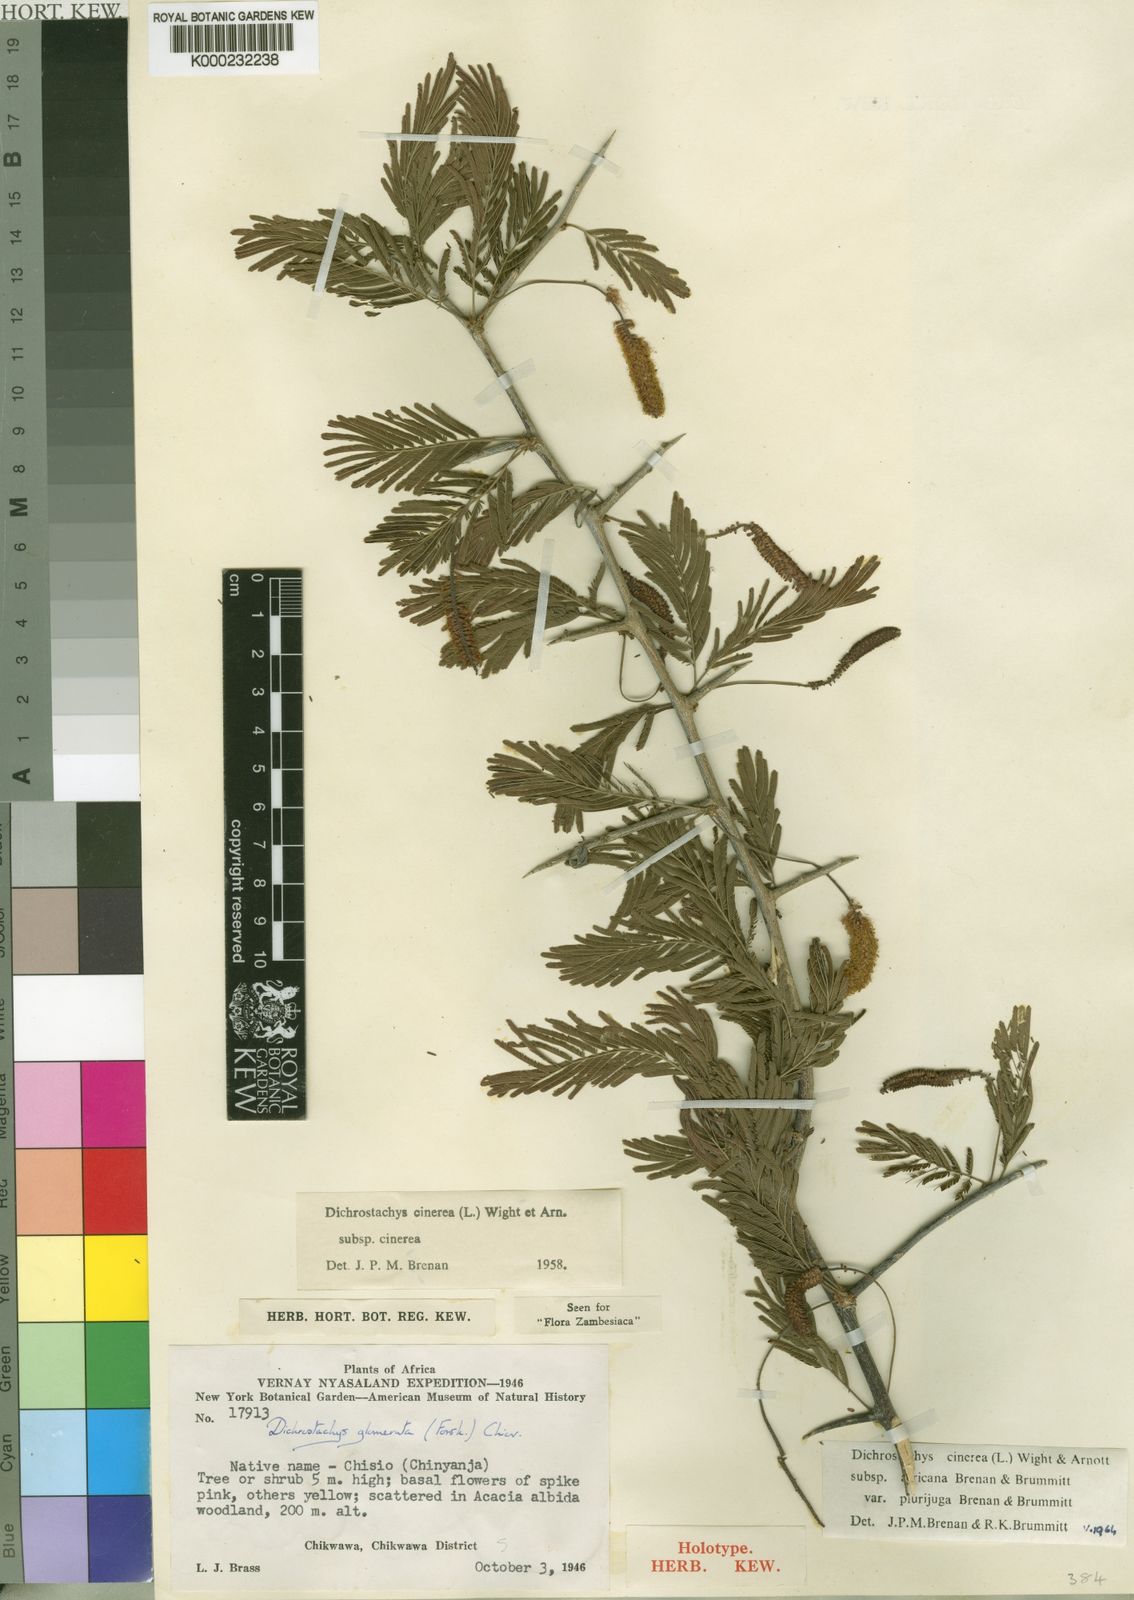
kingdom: Plantae
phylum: Tracheophyta
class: Magnoliopsida
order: Fabales
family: Fabaceae
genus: Dichrostachys
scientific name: Dichrostachys cinerea
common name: Sicklebush
